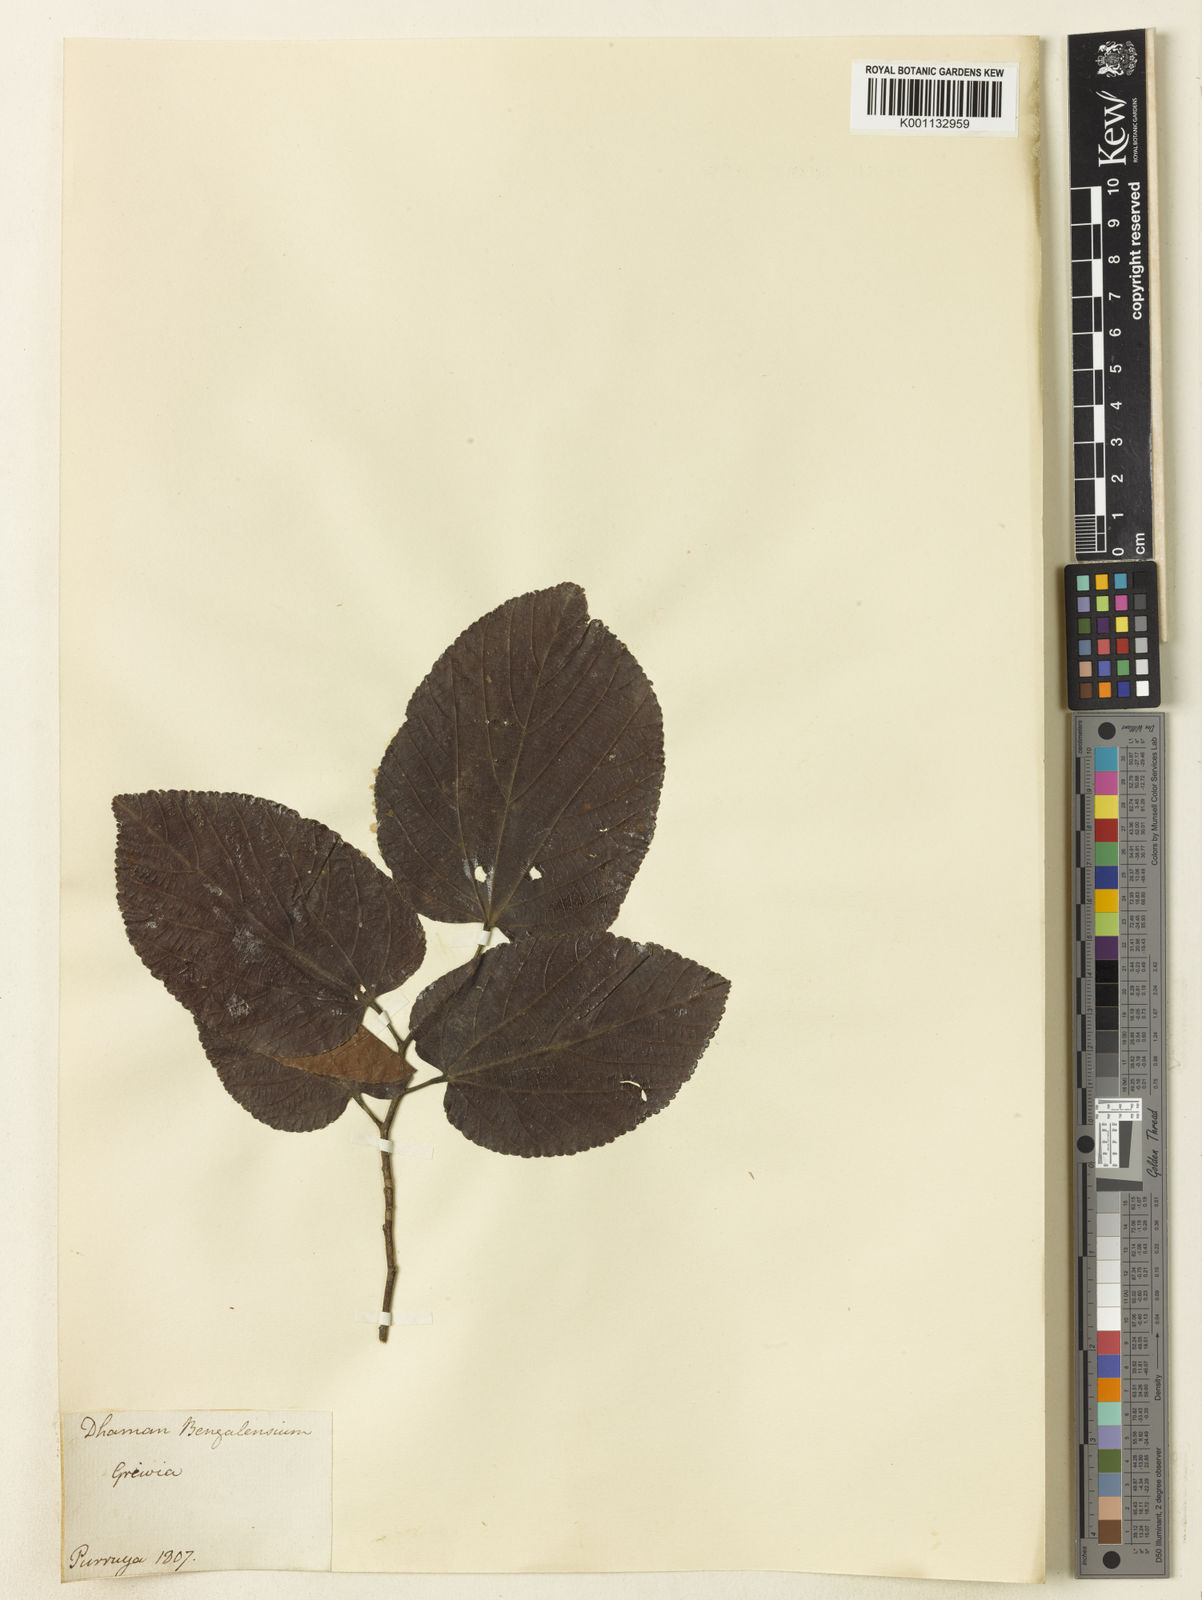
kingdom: Plantae
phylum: Tracheophyta
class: Magnoliopsida
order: Malvales
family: Malvaceae
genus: Grewia
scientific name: Grewia
